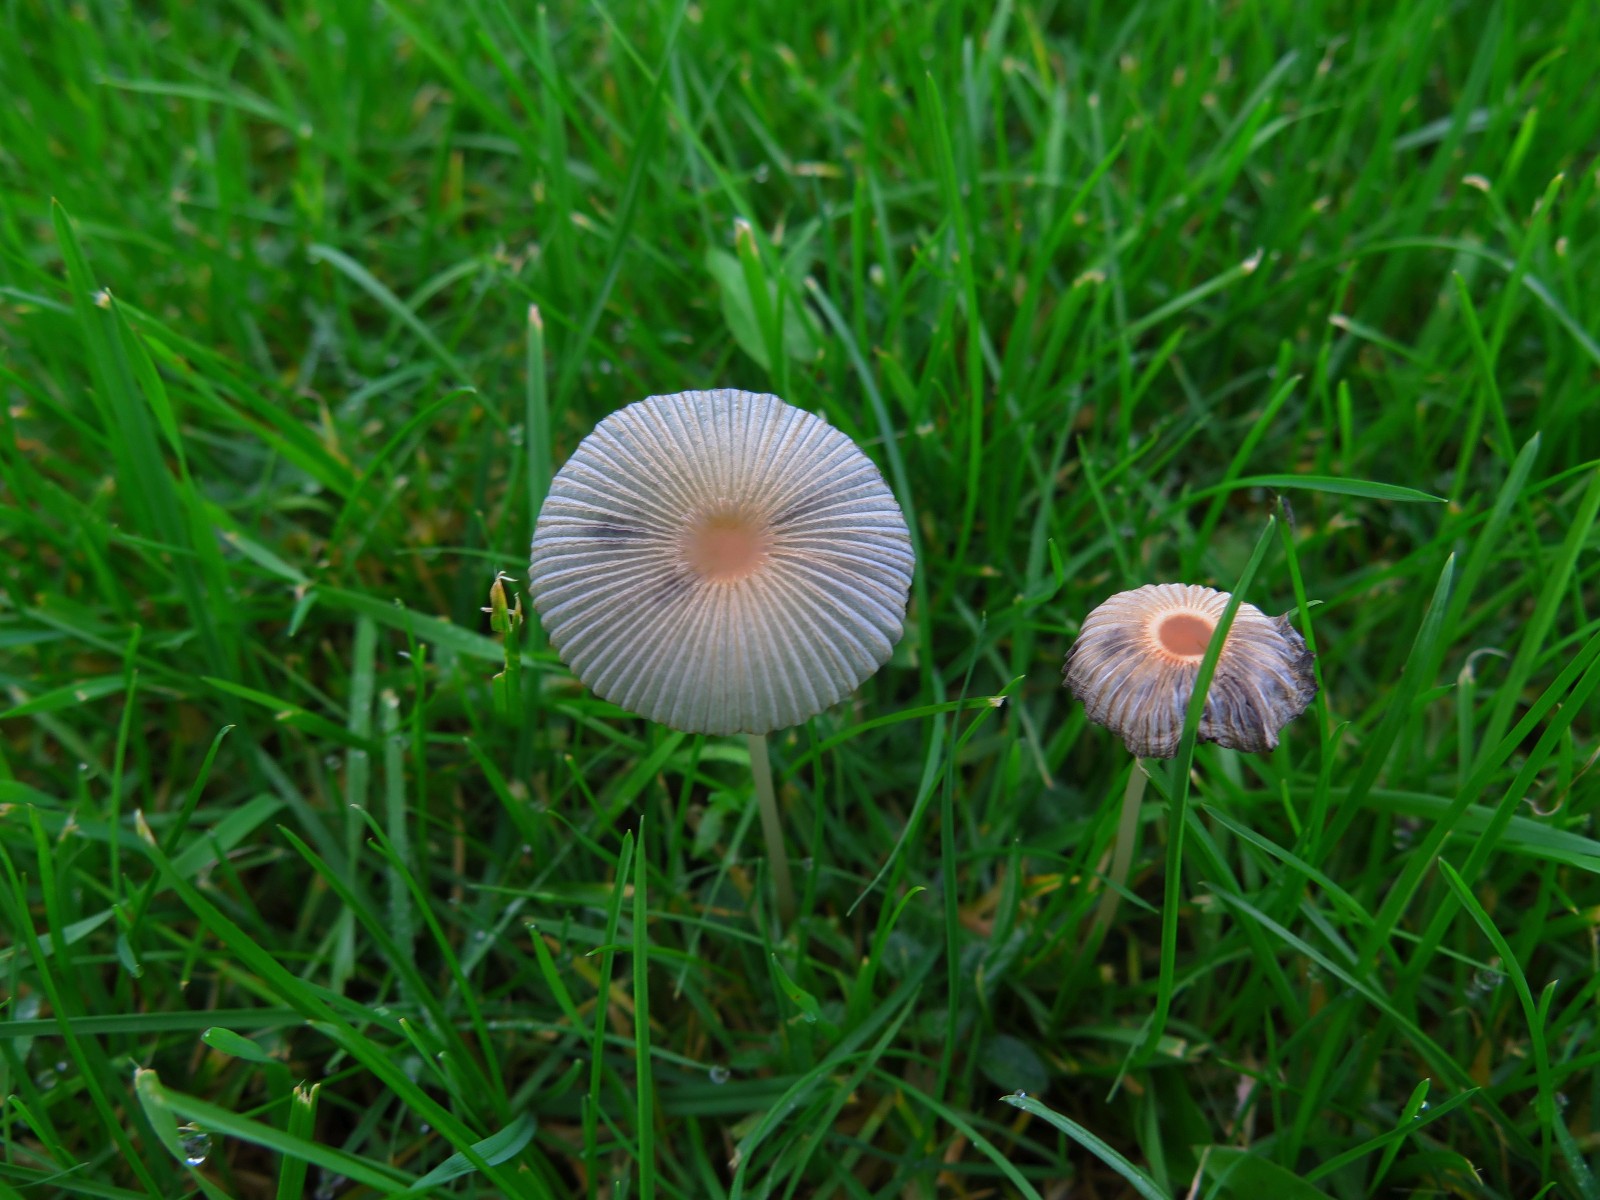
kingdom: Fungi
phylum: Basidiomycota
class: Agaricomycetes
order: Agaricales
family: Psathyrellaceae
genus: Parasola
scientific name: Parasola plicatilis
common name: plæne-hjulhat
